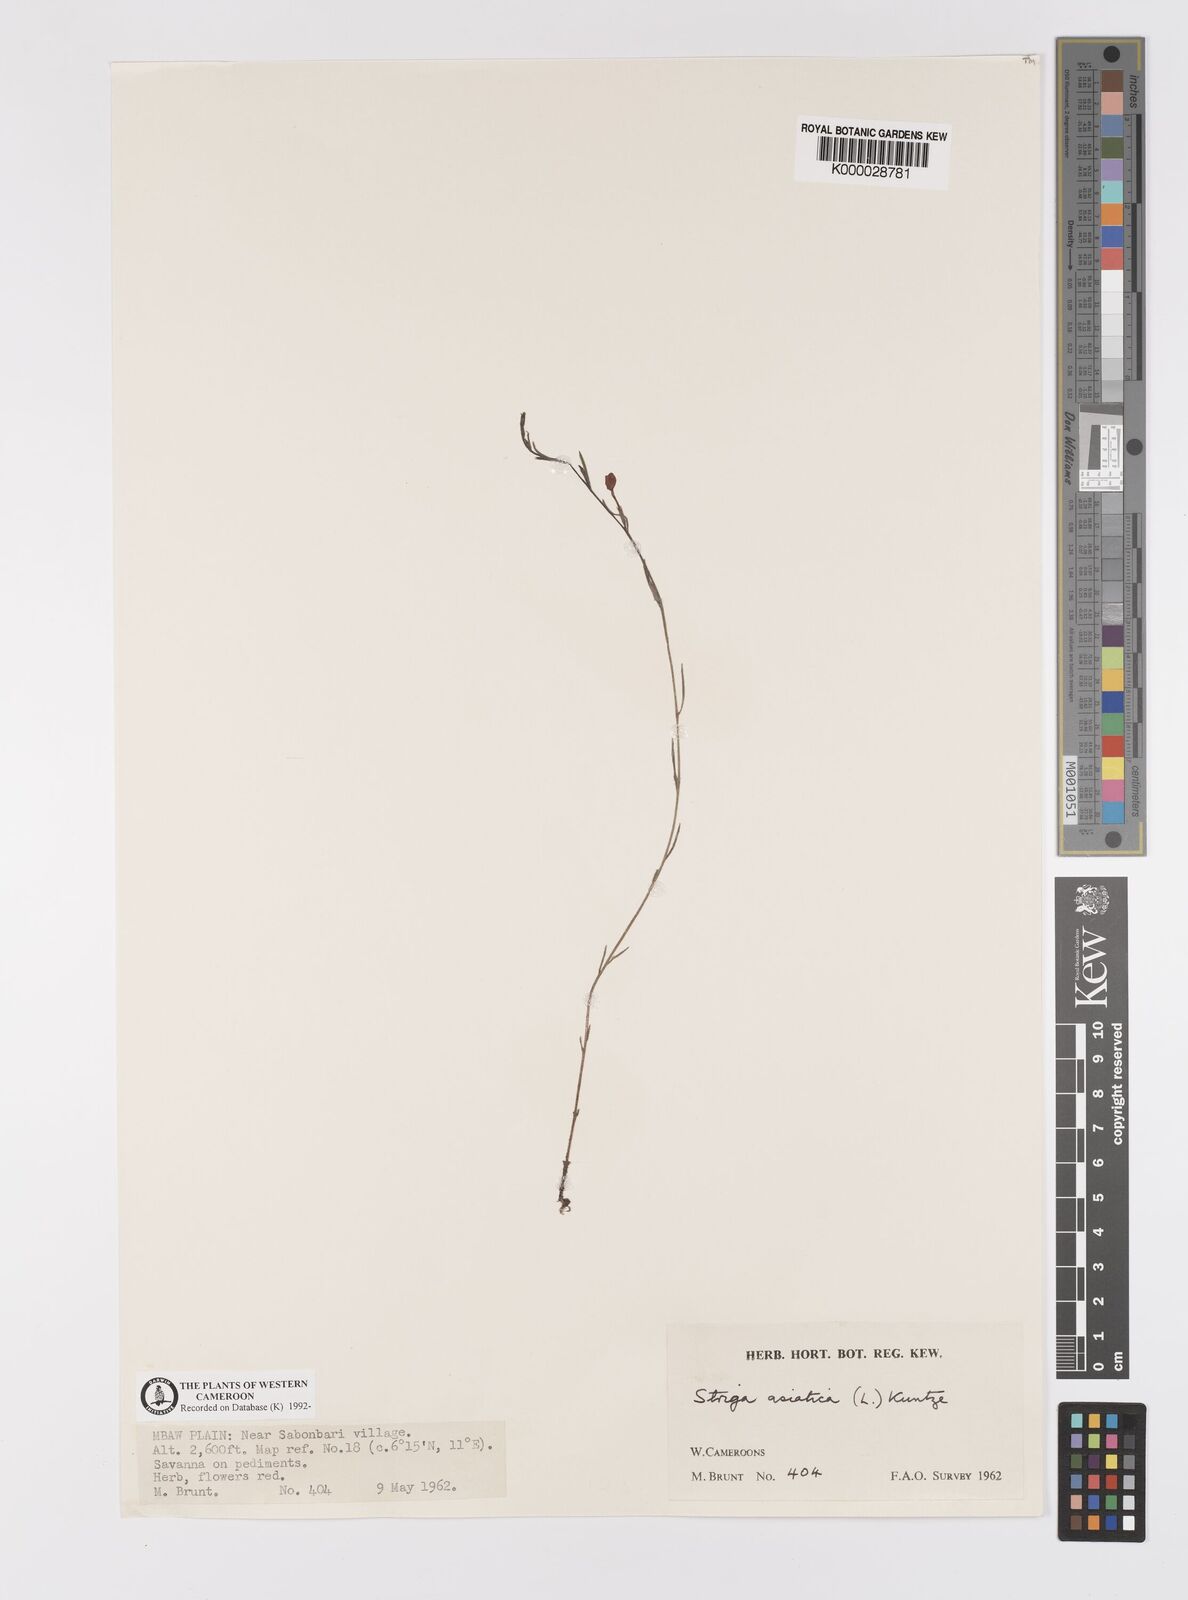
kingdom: Plantae
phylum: Tracheophyta
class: Magnoliopsida
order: Lamiales
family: Orobanchaceae
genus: Striga
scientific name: Striga asiatica
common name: Asiatic witchweed
